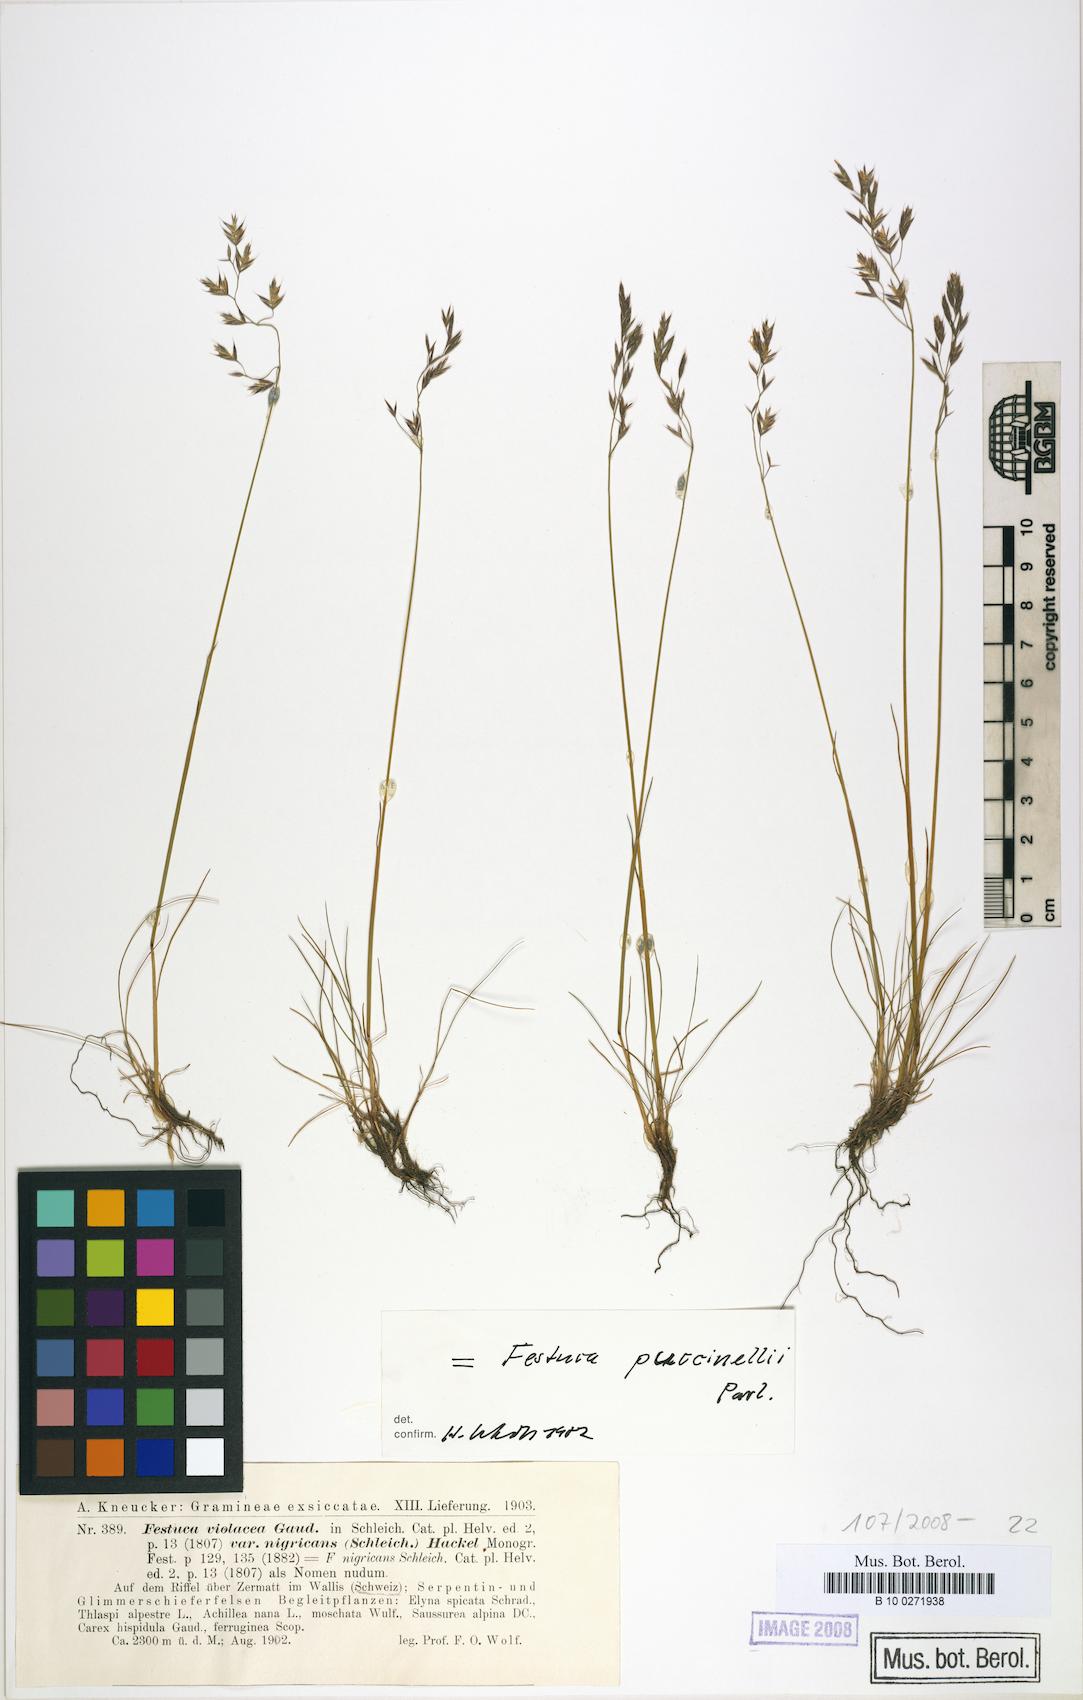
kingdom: Plantae
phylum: Tracheophyta
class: Liliopsida
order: Poales
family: Poaceae
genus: Festuca
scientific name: Festuca puccinellii
